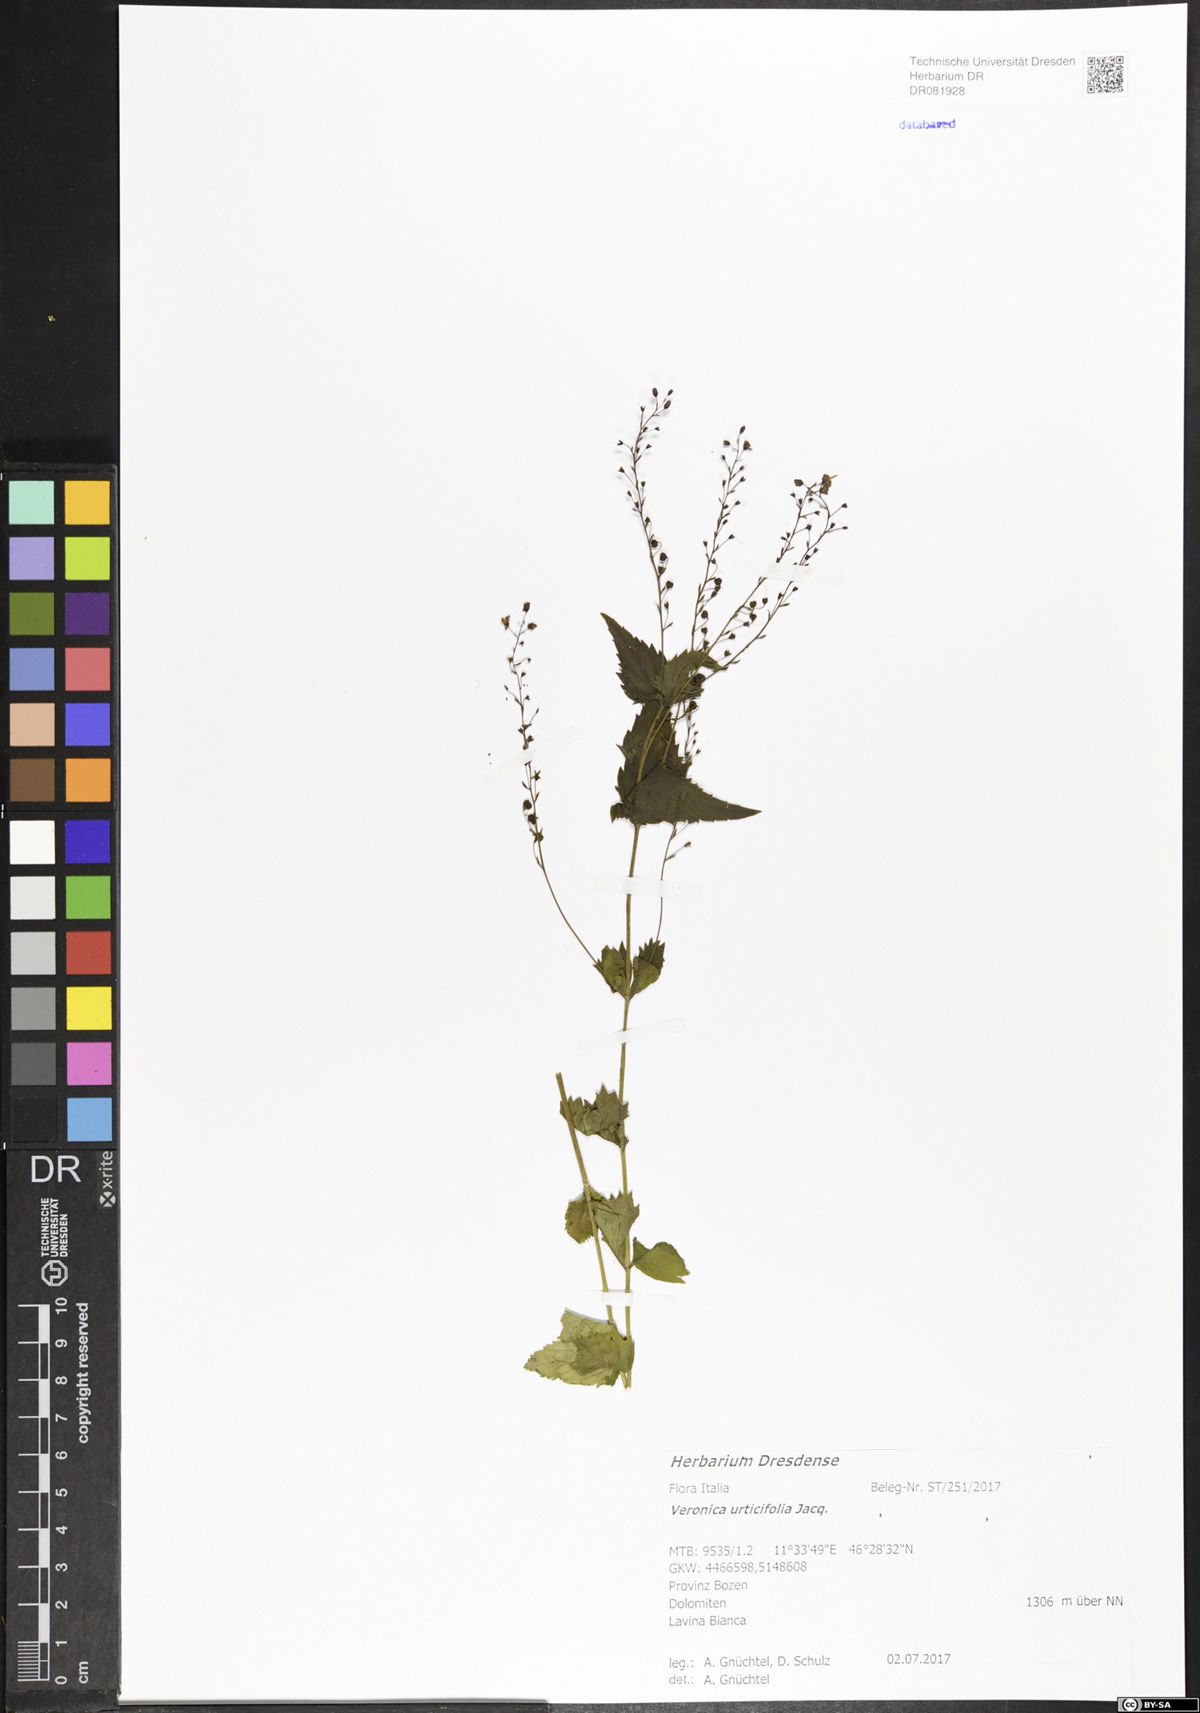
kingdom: Plantae
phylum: Tracheophyta
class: Magnoliopsida
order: Lamiales
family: Plantaginaceae
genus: Veronica
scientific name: Veronica urticifolia
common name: Nettle-leaf speedwell
